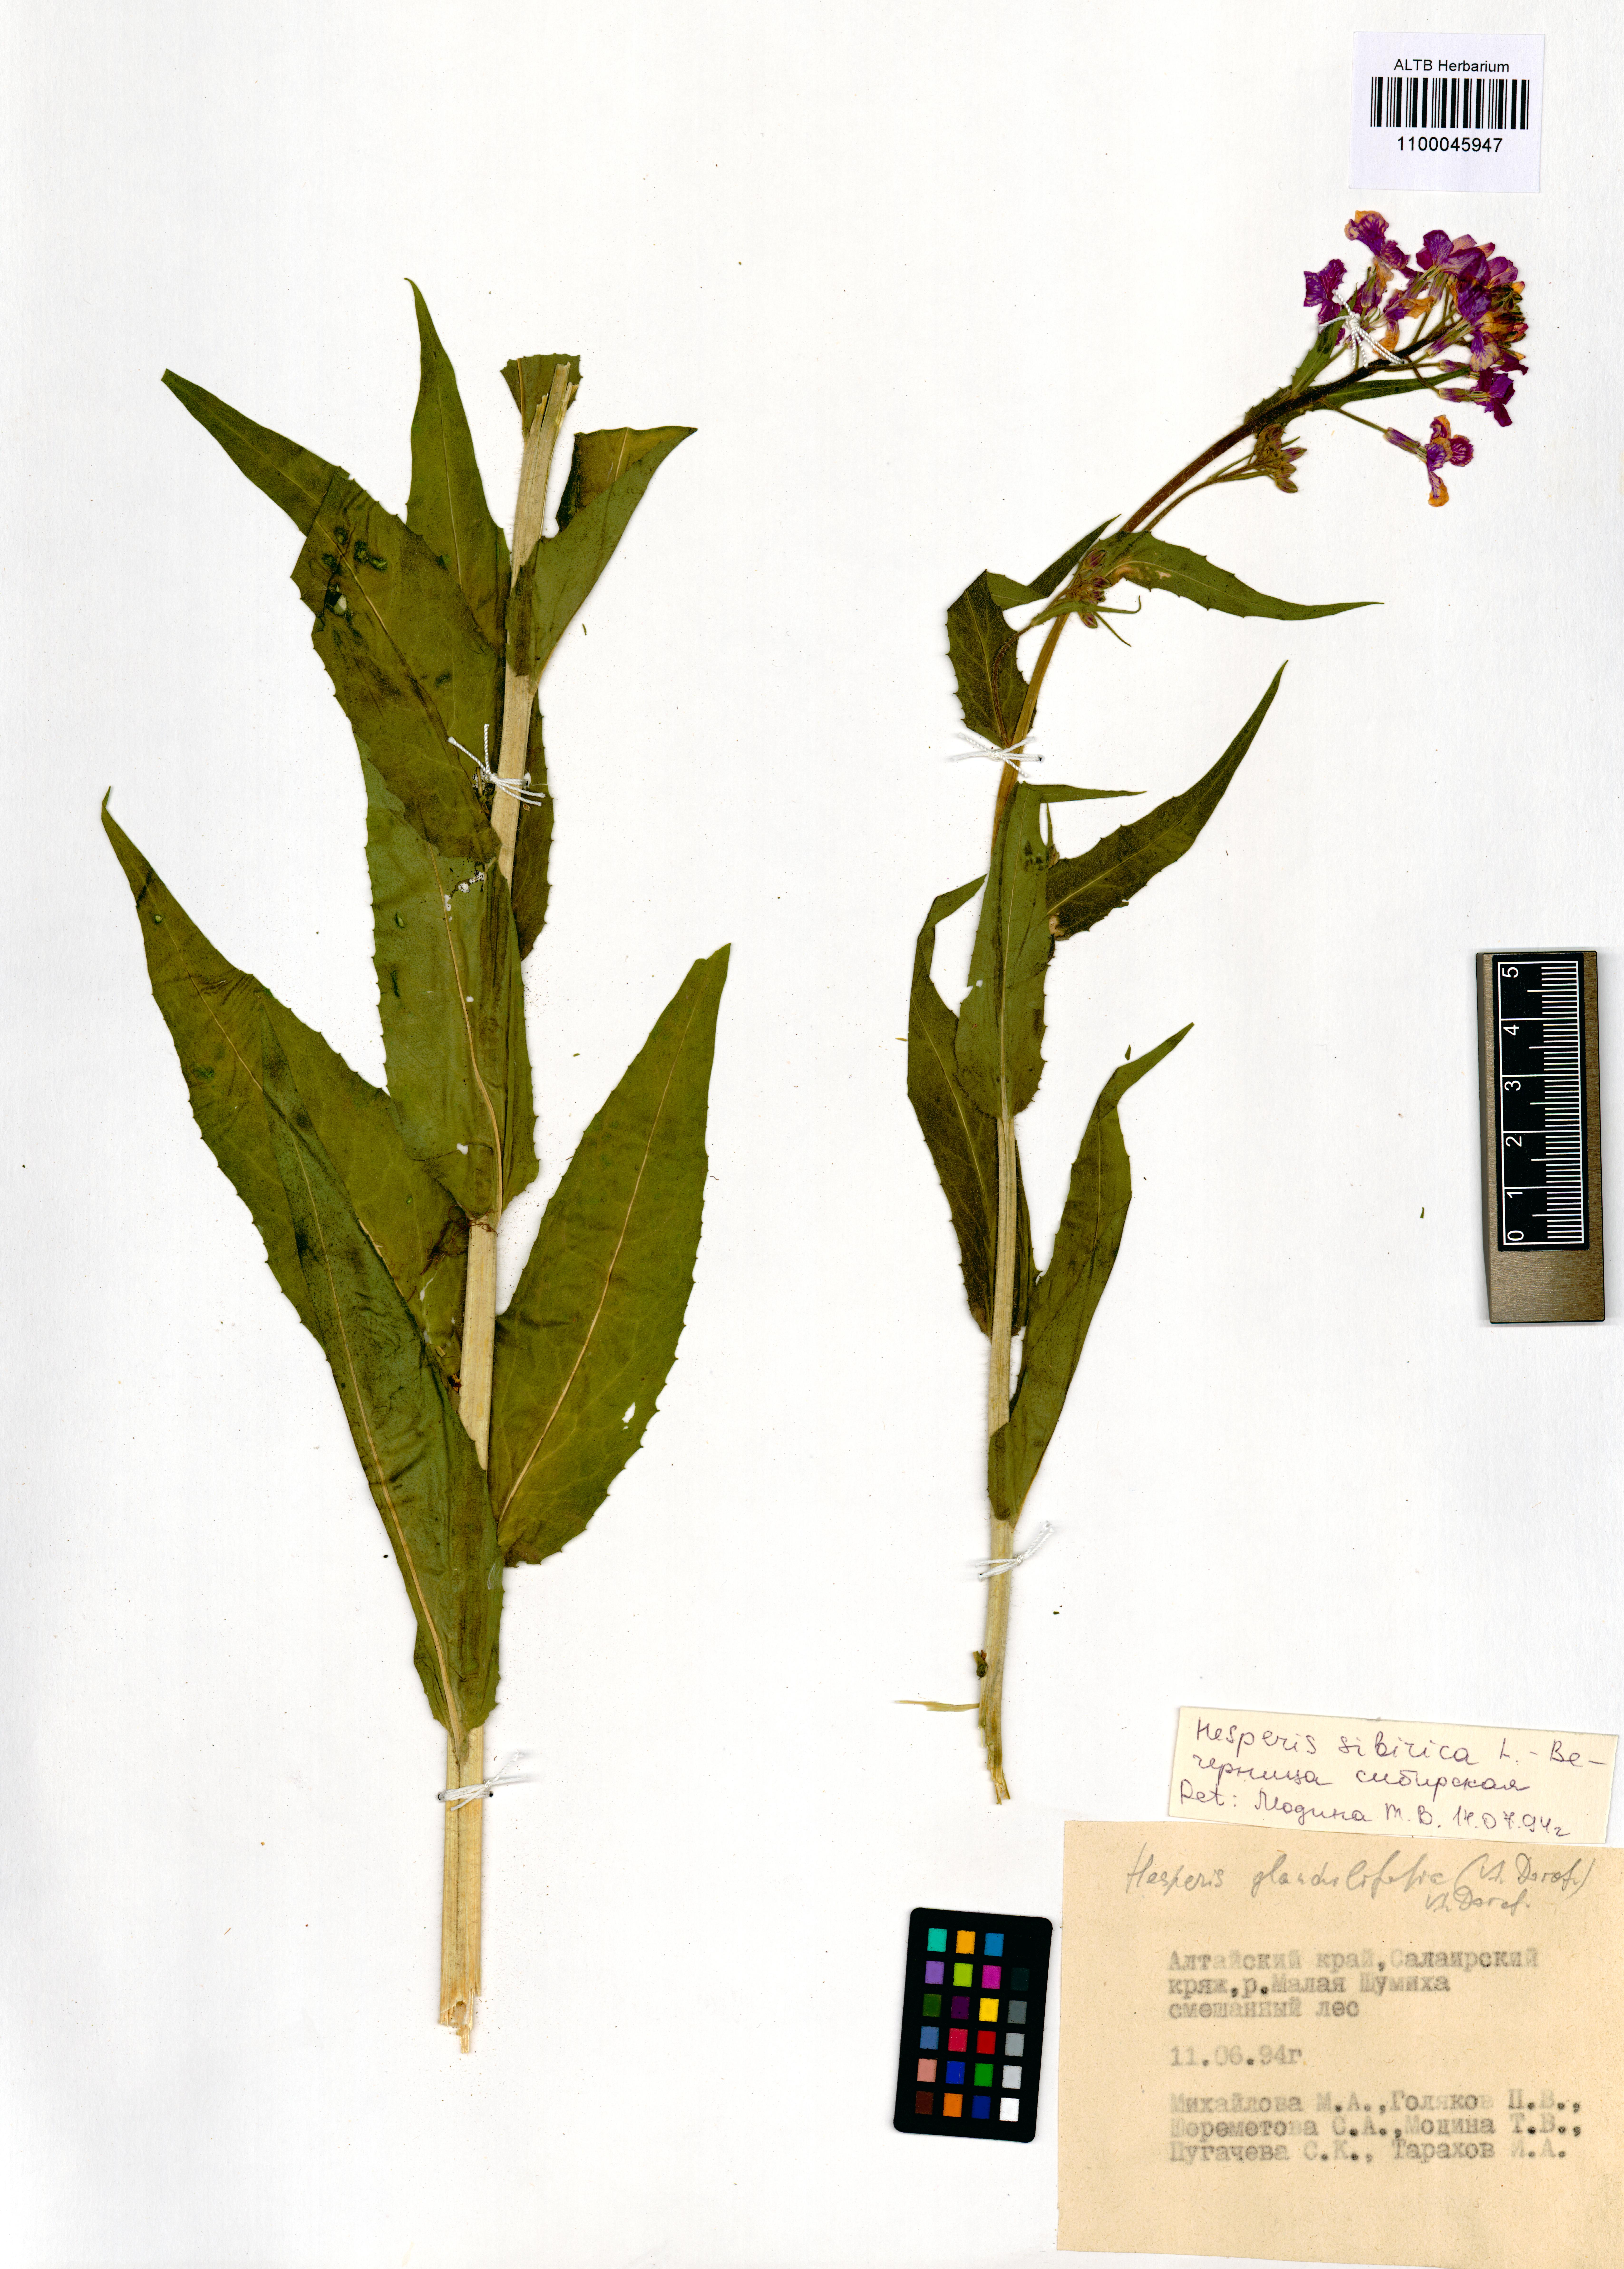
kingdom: Plantae
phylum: Tracheophyta
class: Magnoliopsida
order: Brassicales
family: Brassicaceae
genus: Hesperis
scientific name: Hesperis sibirica
